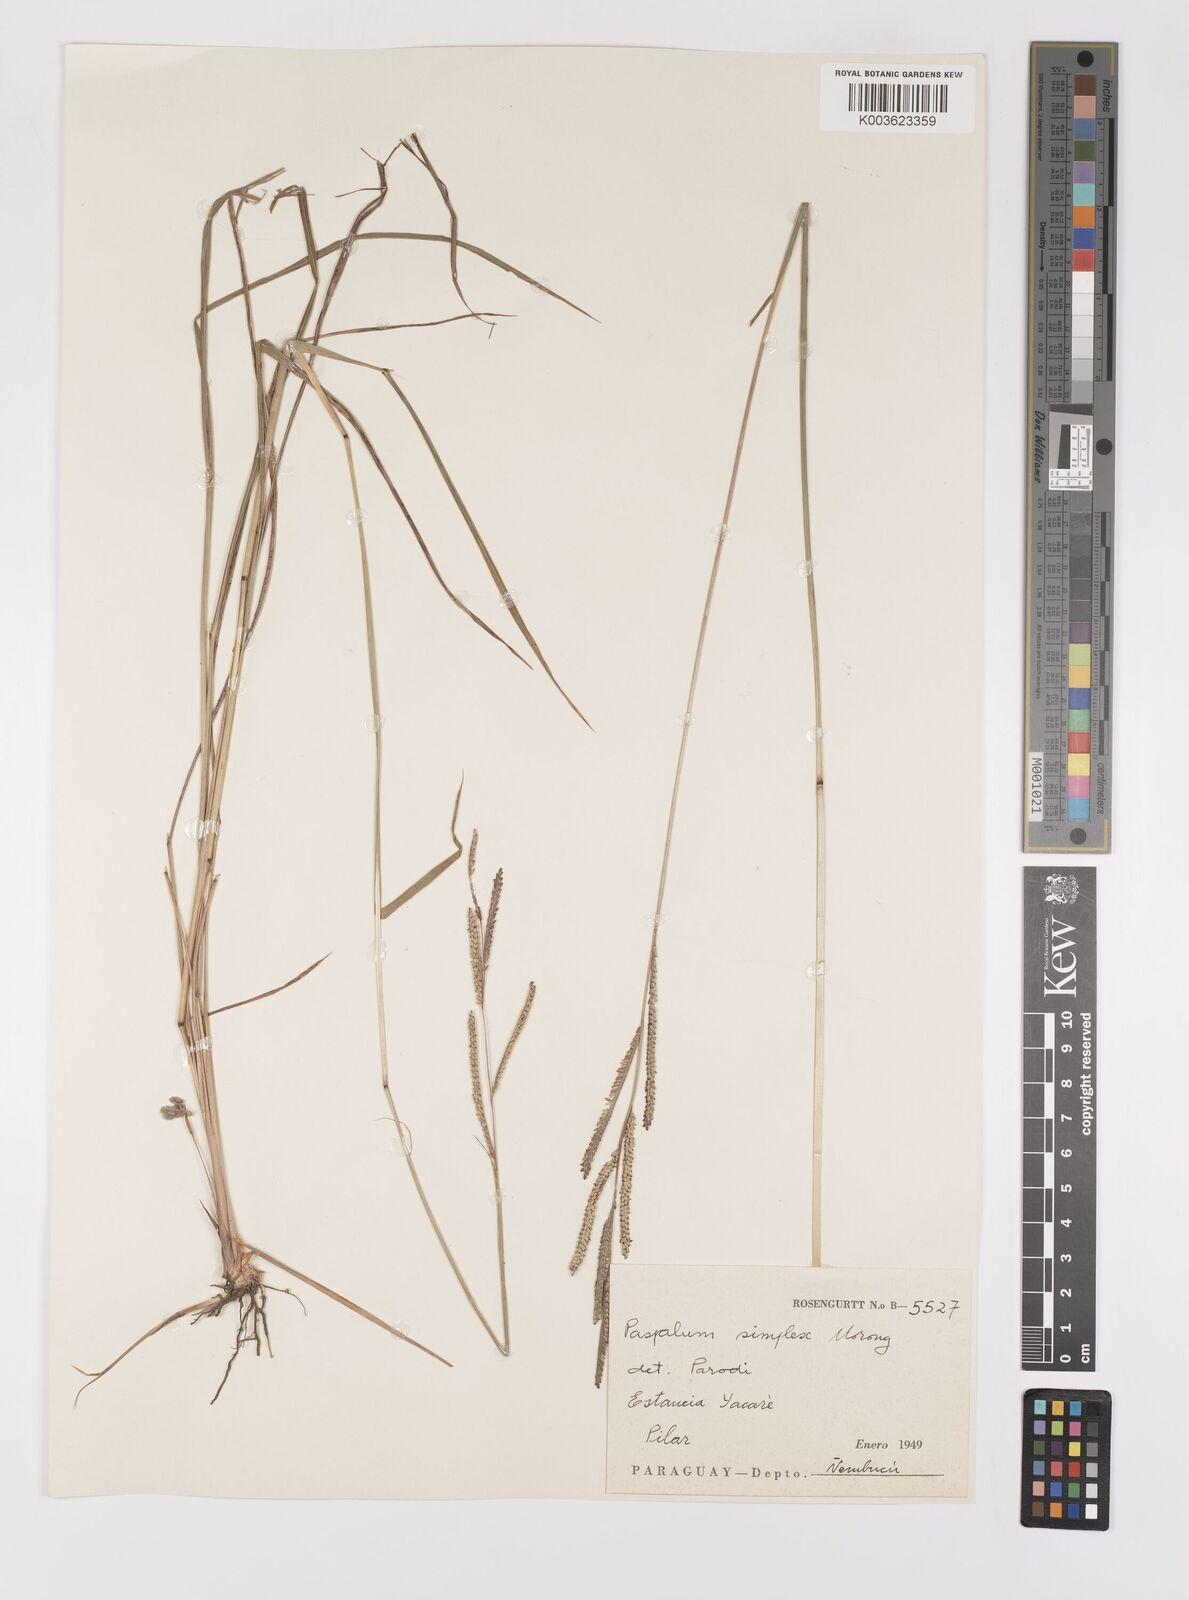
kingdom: Plantae
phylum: Tracheophyta
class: Liliopsida
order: Poales
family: Poaceae
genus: Paspalum
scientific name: Paspalum simplex
